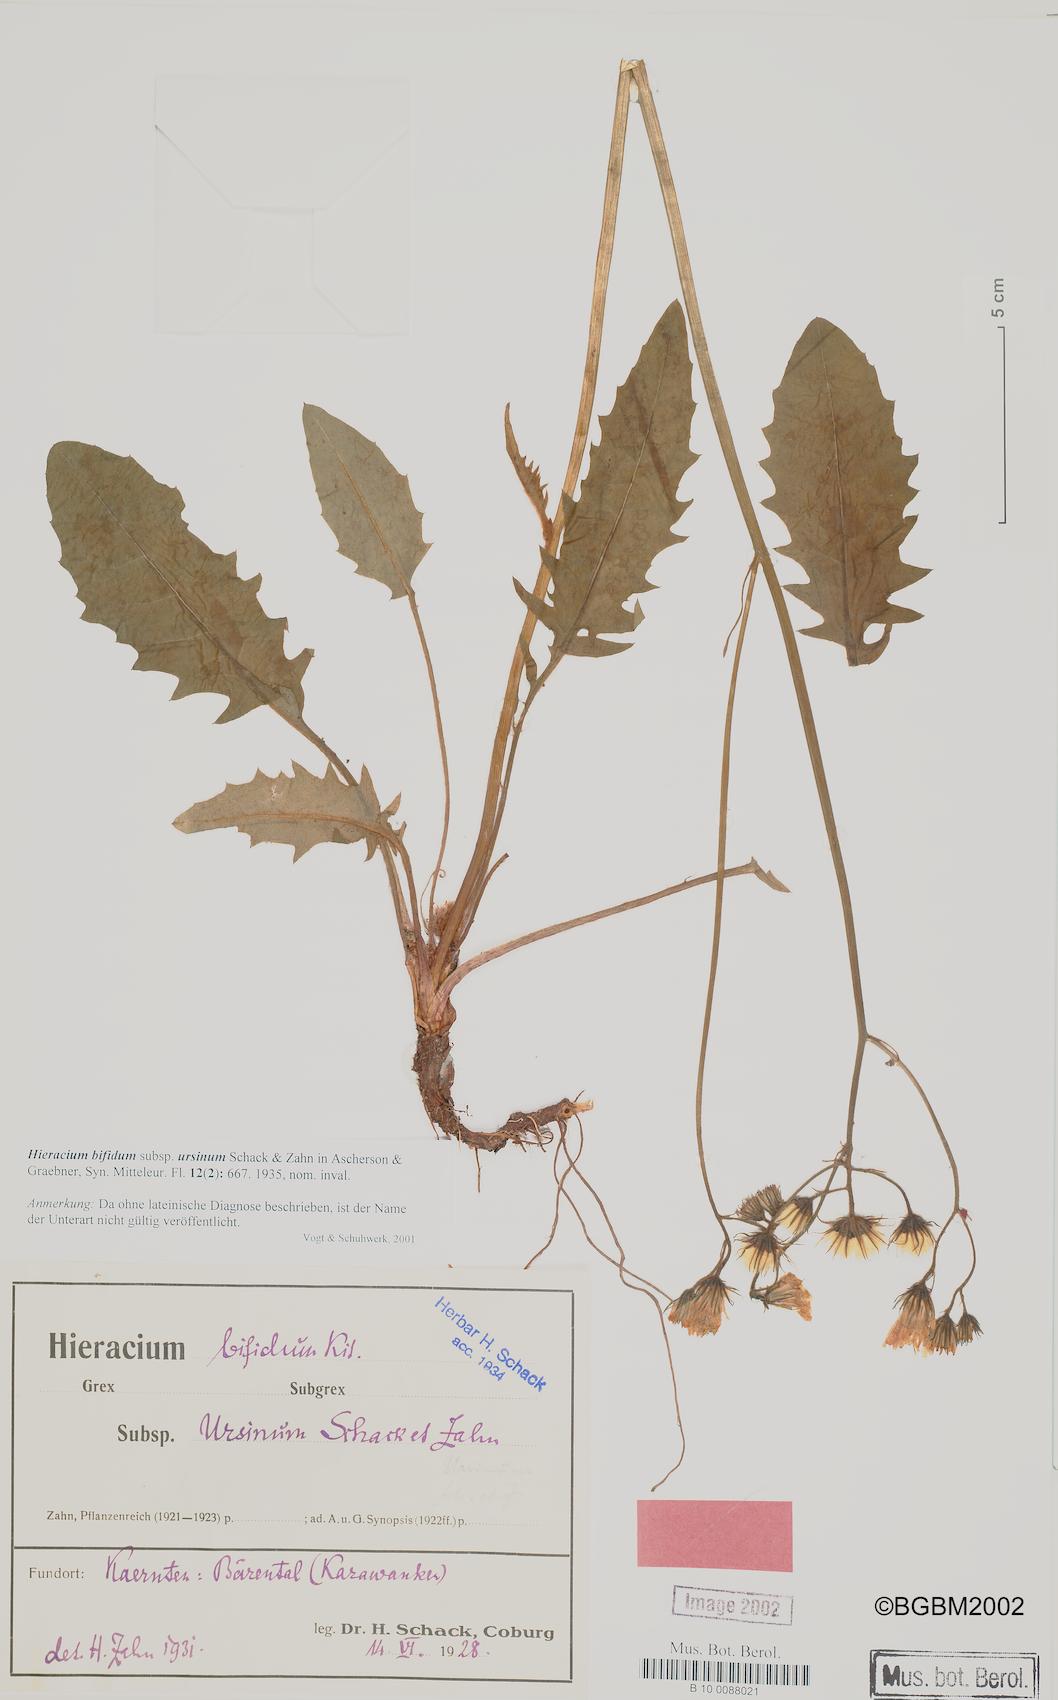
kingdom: Plantae
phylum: Tracheophyta
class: Magnoliopsida
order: Asterales
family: Asteraceae
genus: Hieracium
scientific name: Hieracium bifidum
